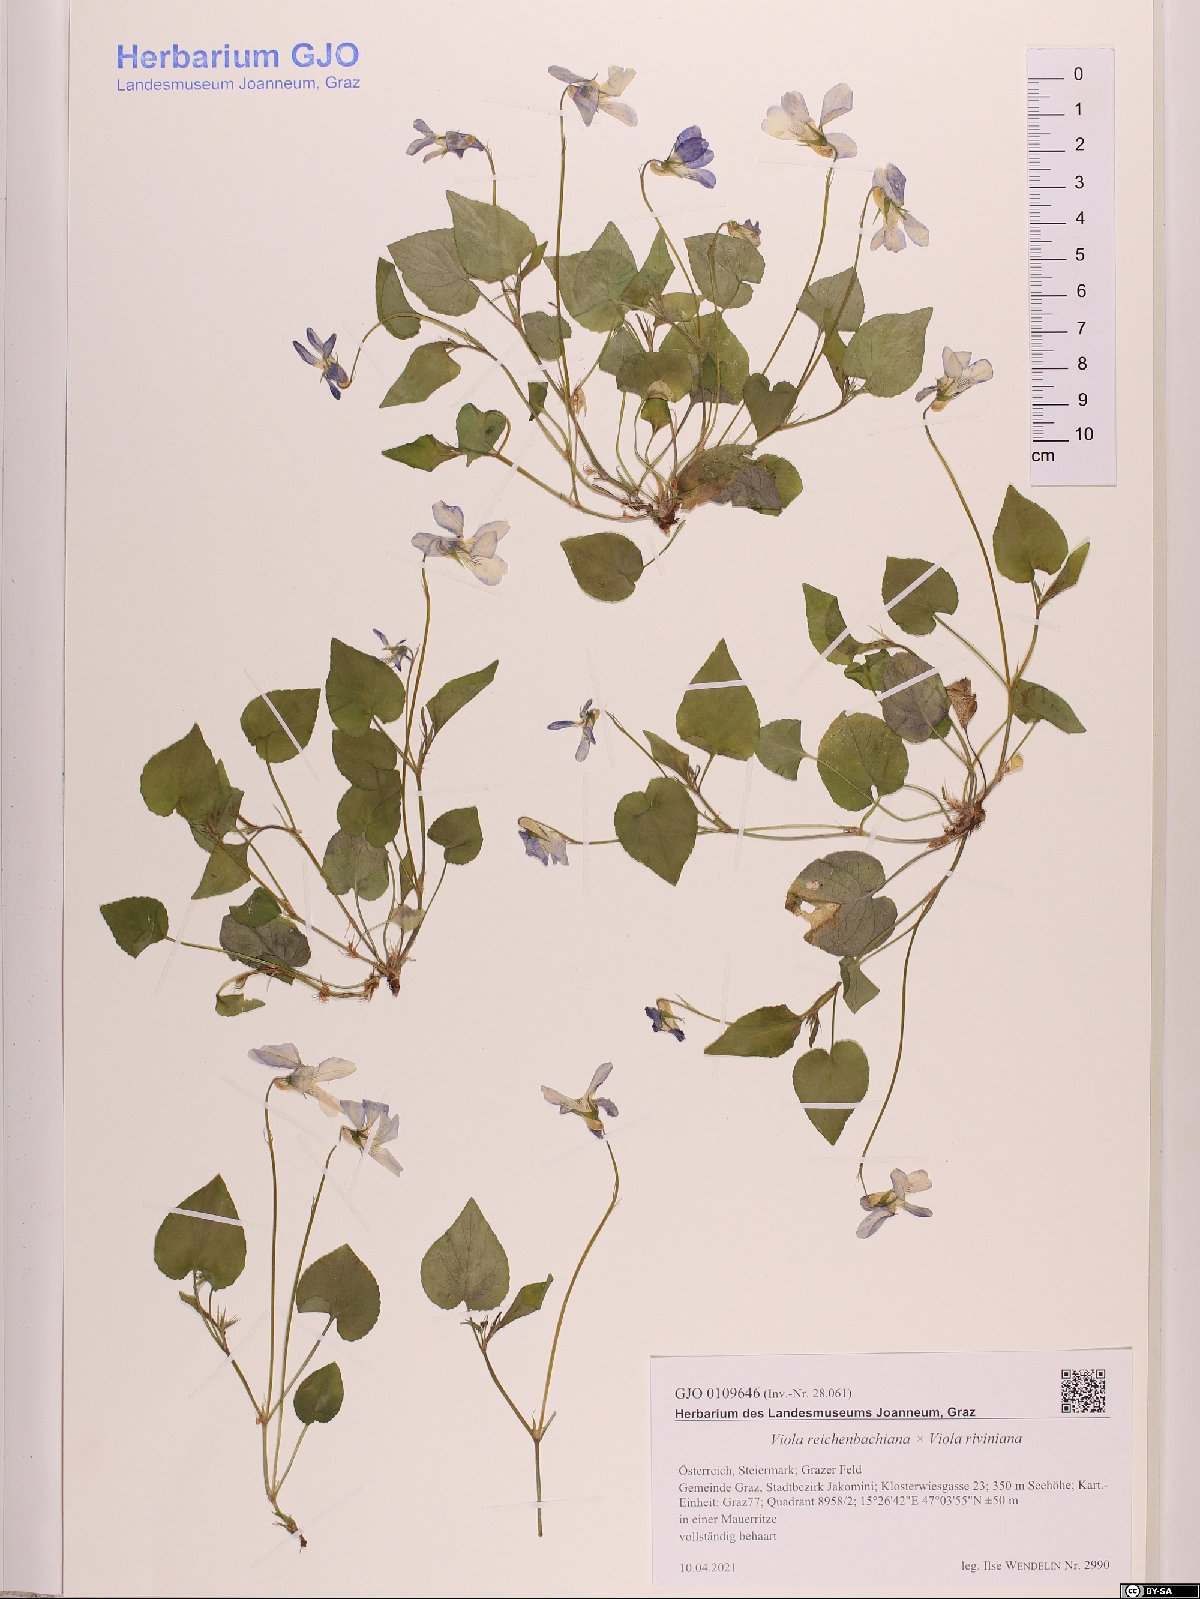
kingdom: Plantae
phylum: Tracheophyta
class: Magnoliopsida
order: Malpighiales
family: Violaceae
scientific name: Violaceae
